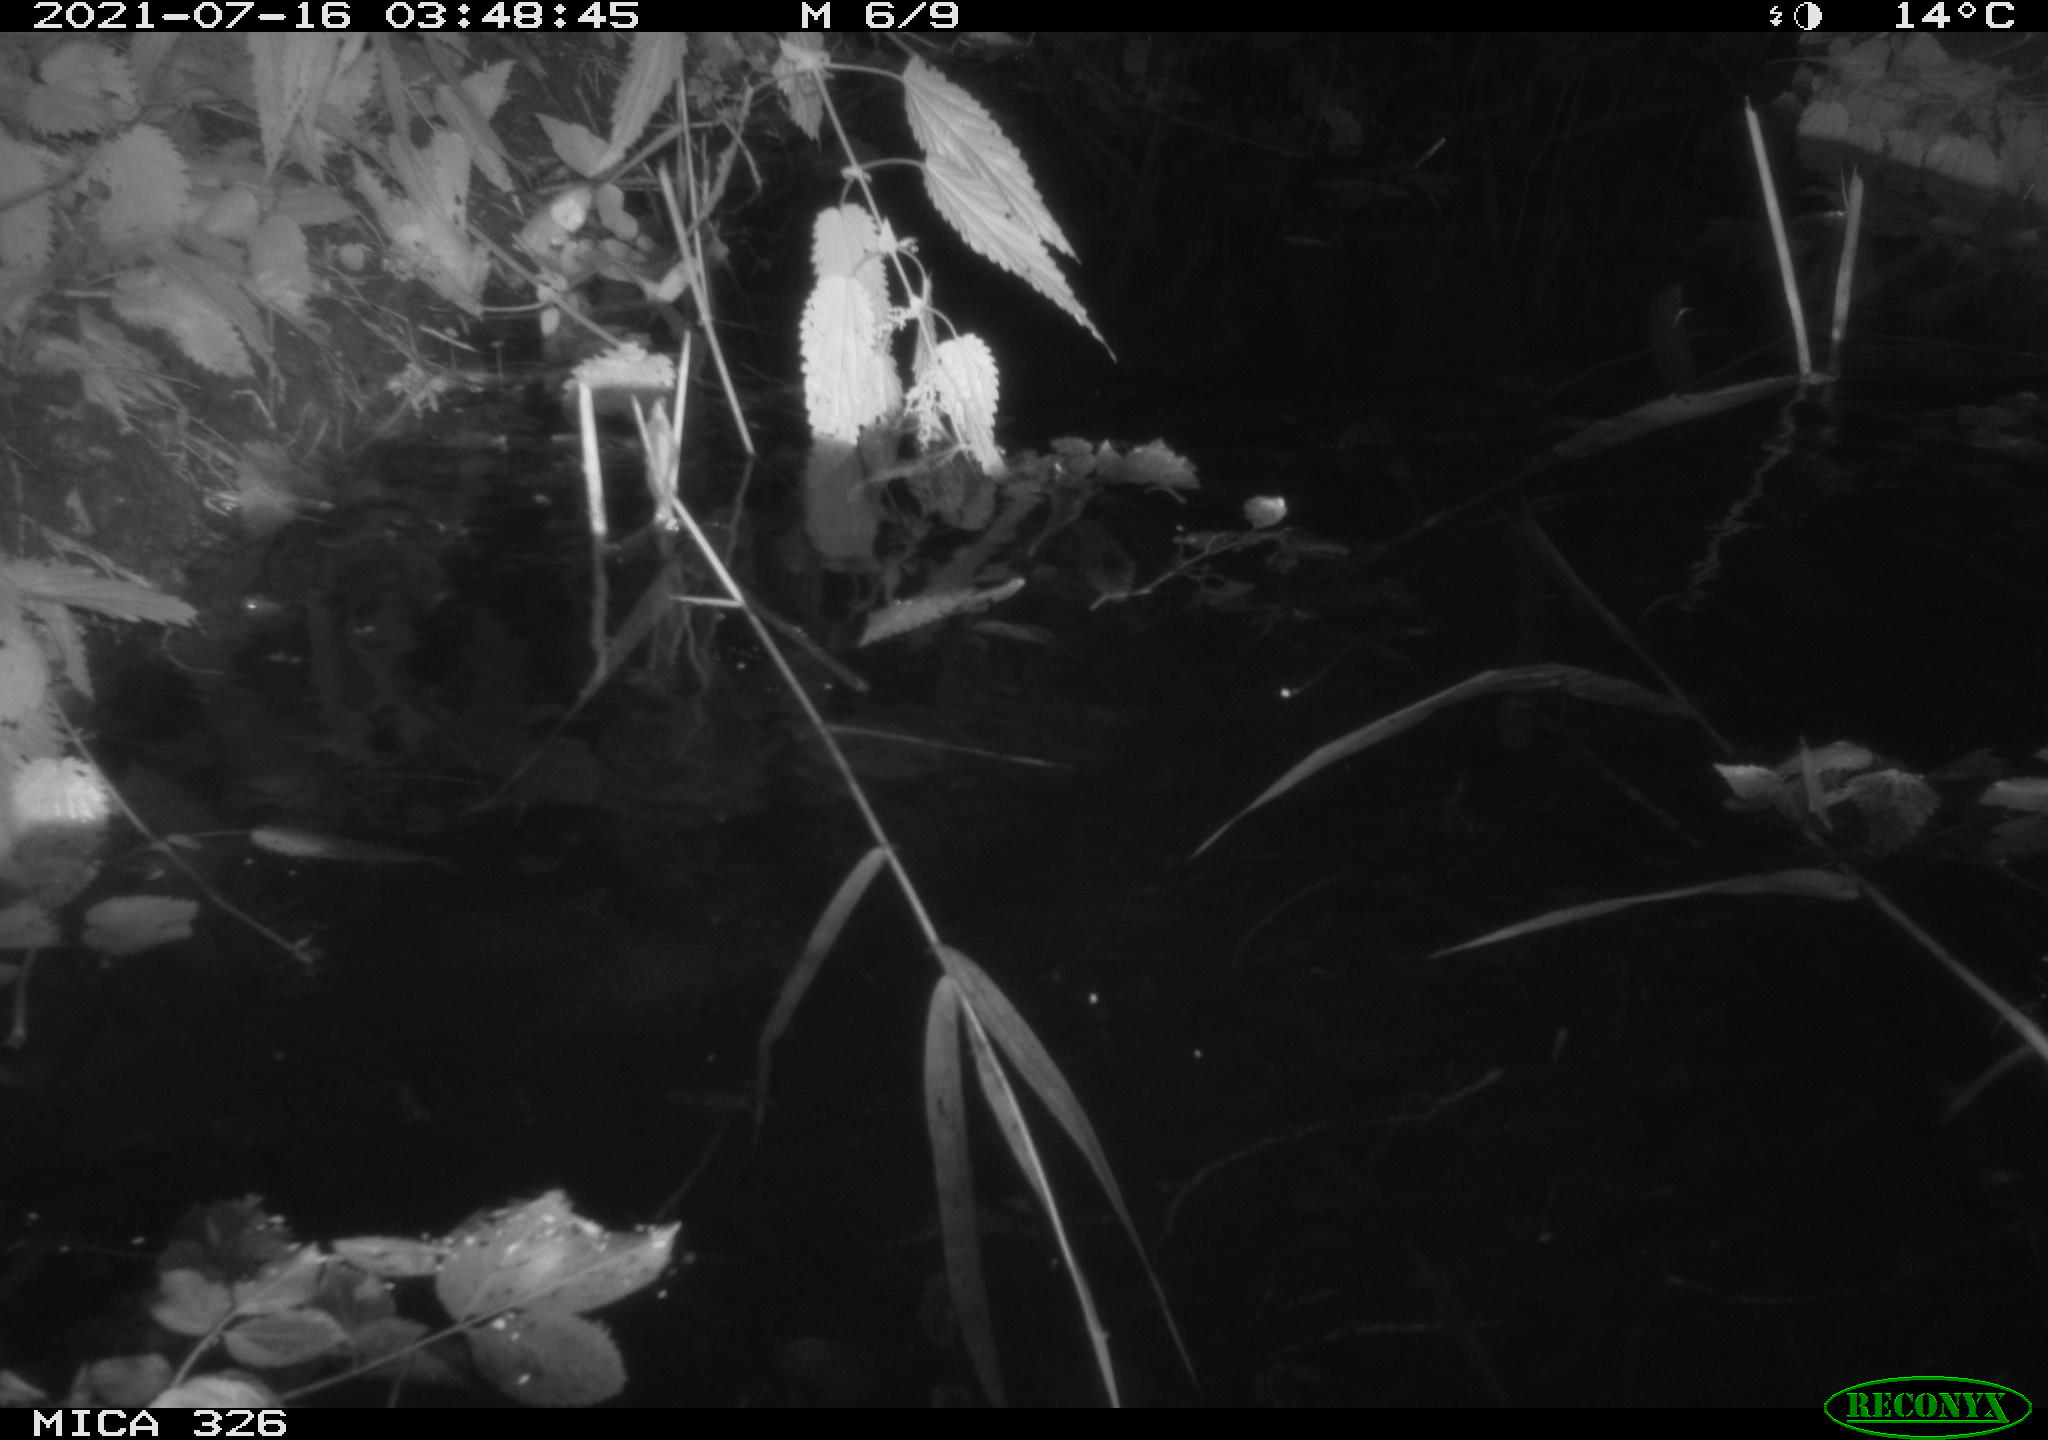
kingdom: Animalia
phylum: Chordata
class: Mammalia
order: Rodentia
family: Muridae
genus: Rattus
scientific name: Rattus norvegicus
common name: Brown rat
